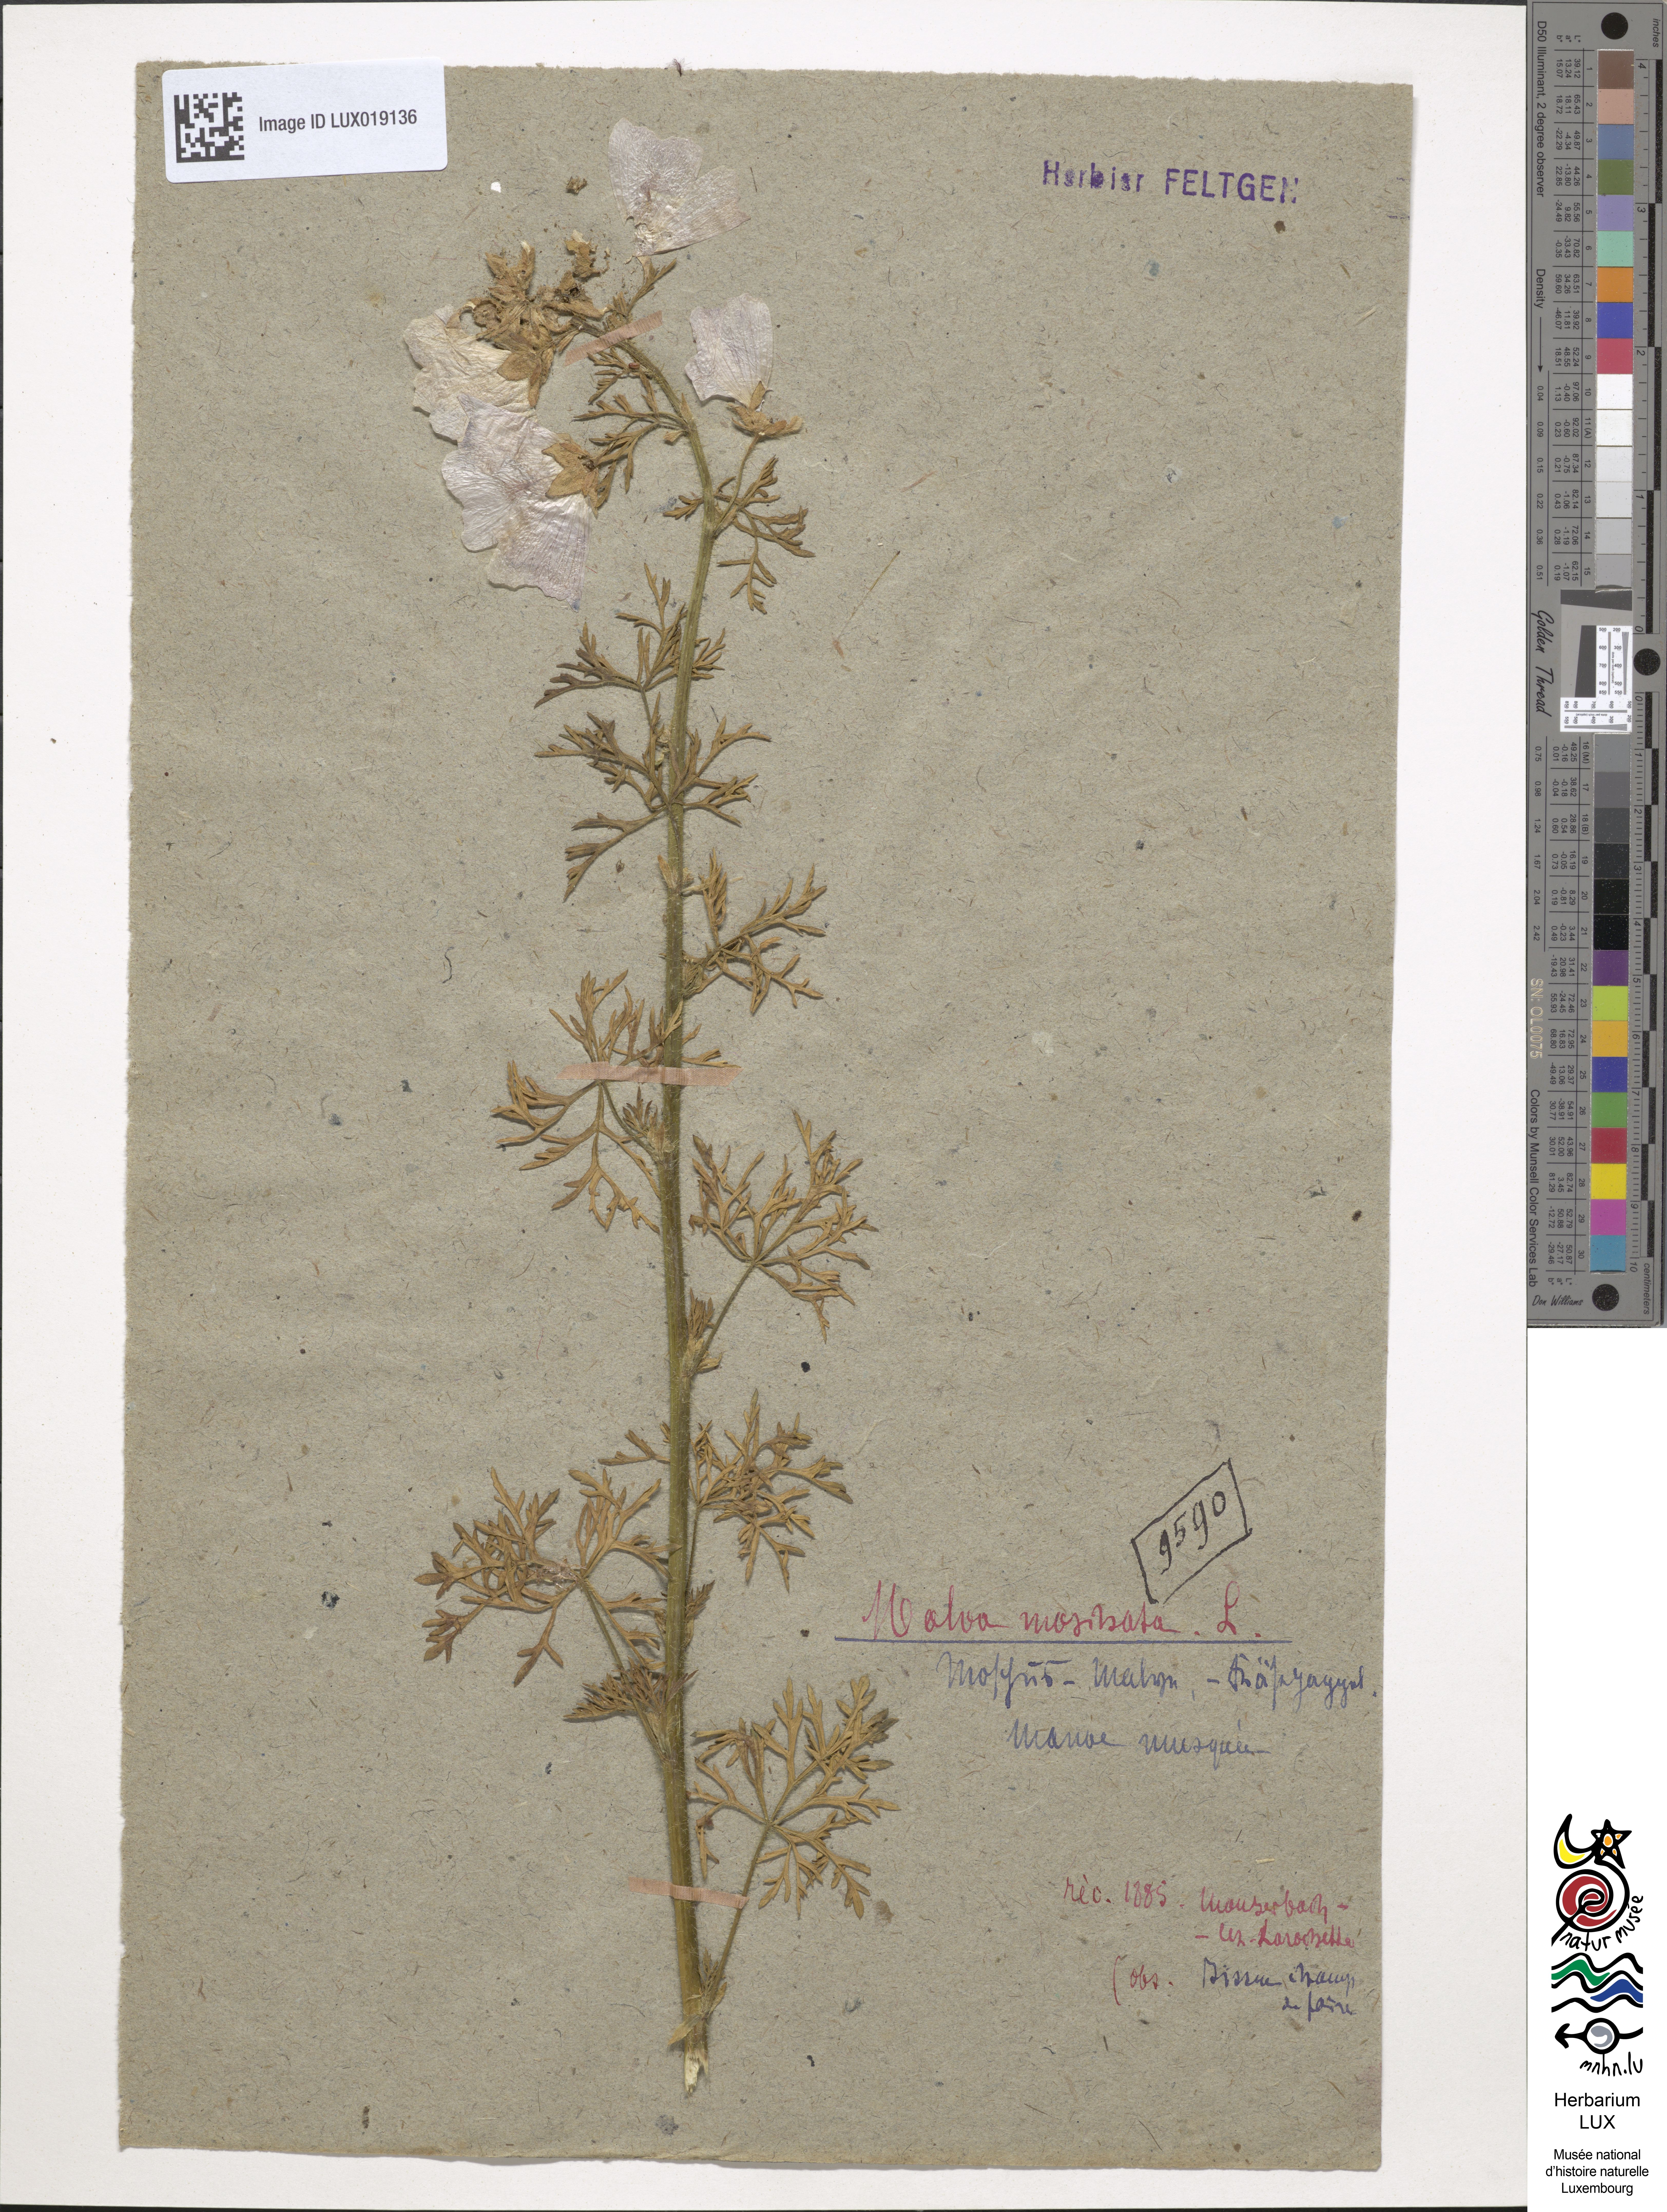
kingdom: Plantae
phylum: Tracheophyta
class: Magnoliopsida
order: Malvales
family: Malvaceae
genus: Malva
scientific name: Malva moschata
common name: Musk mallow
